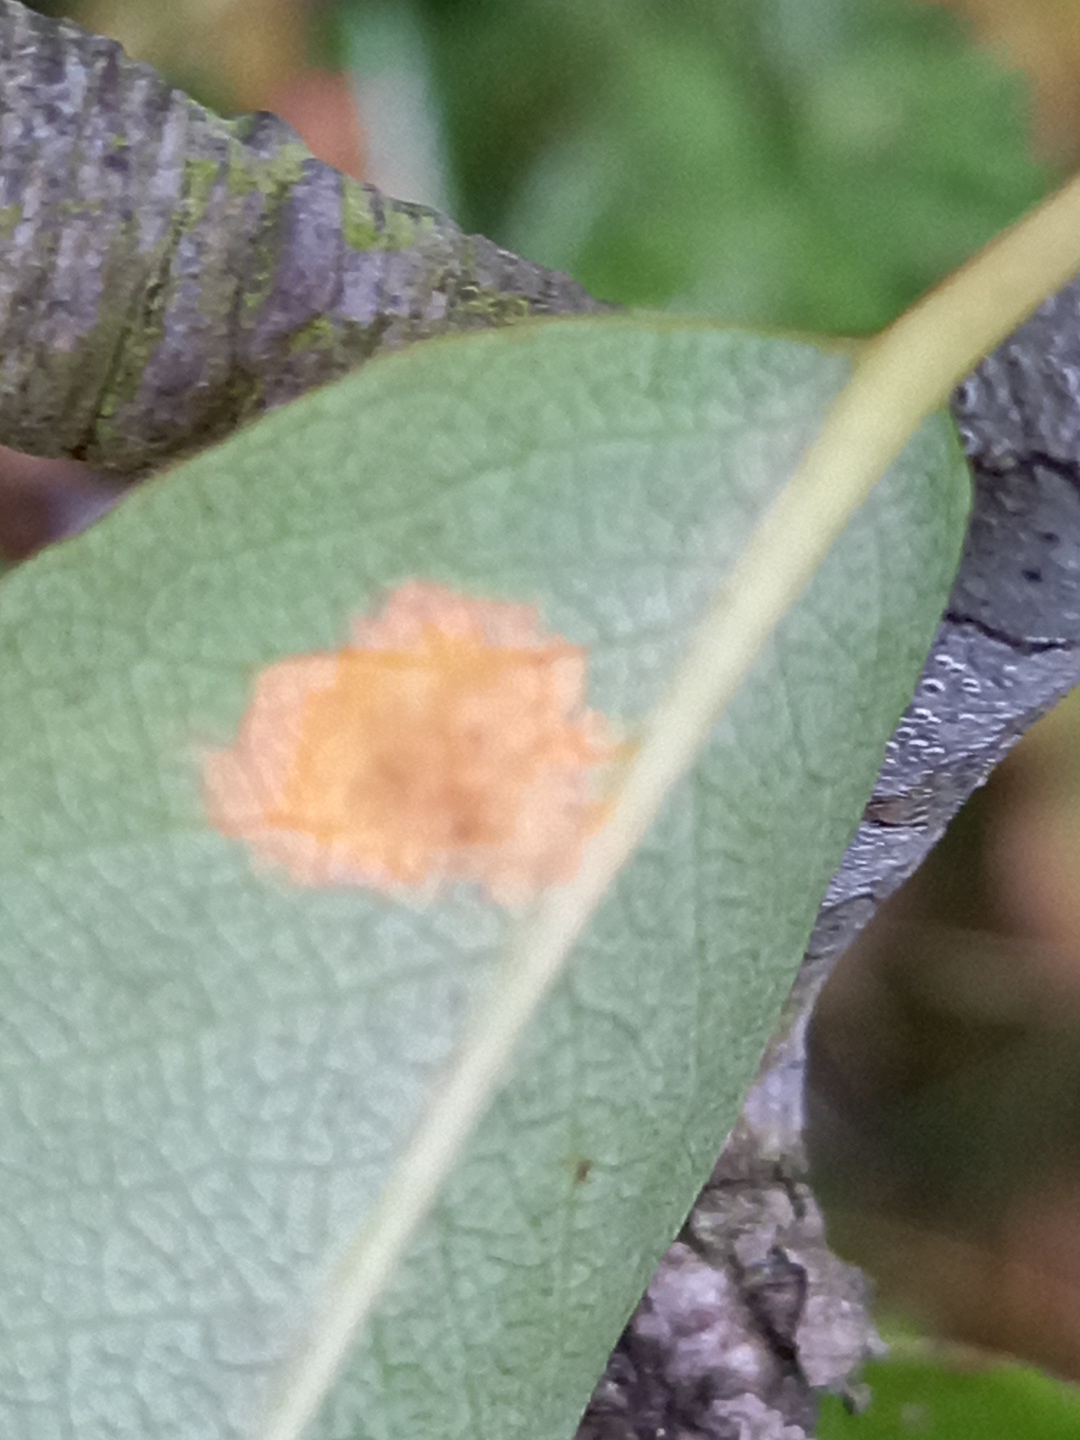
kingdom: Fungi
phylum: Basidiomycota
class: Pucciniomycetes
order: Pucciniales
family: Gymnosporangiaceae
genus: Gymnosporangium
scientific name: Gymnosporangium sabinae
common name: pæregitter-bævrerust
